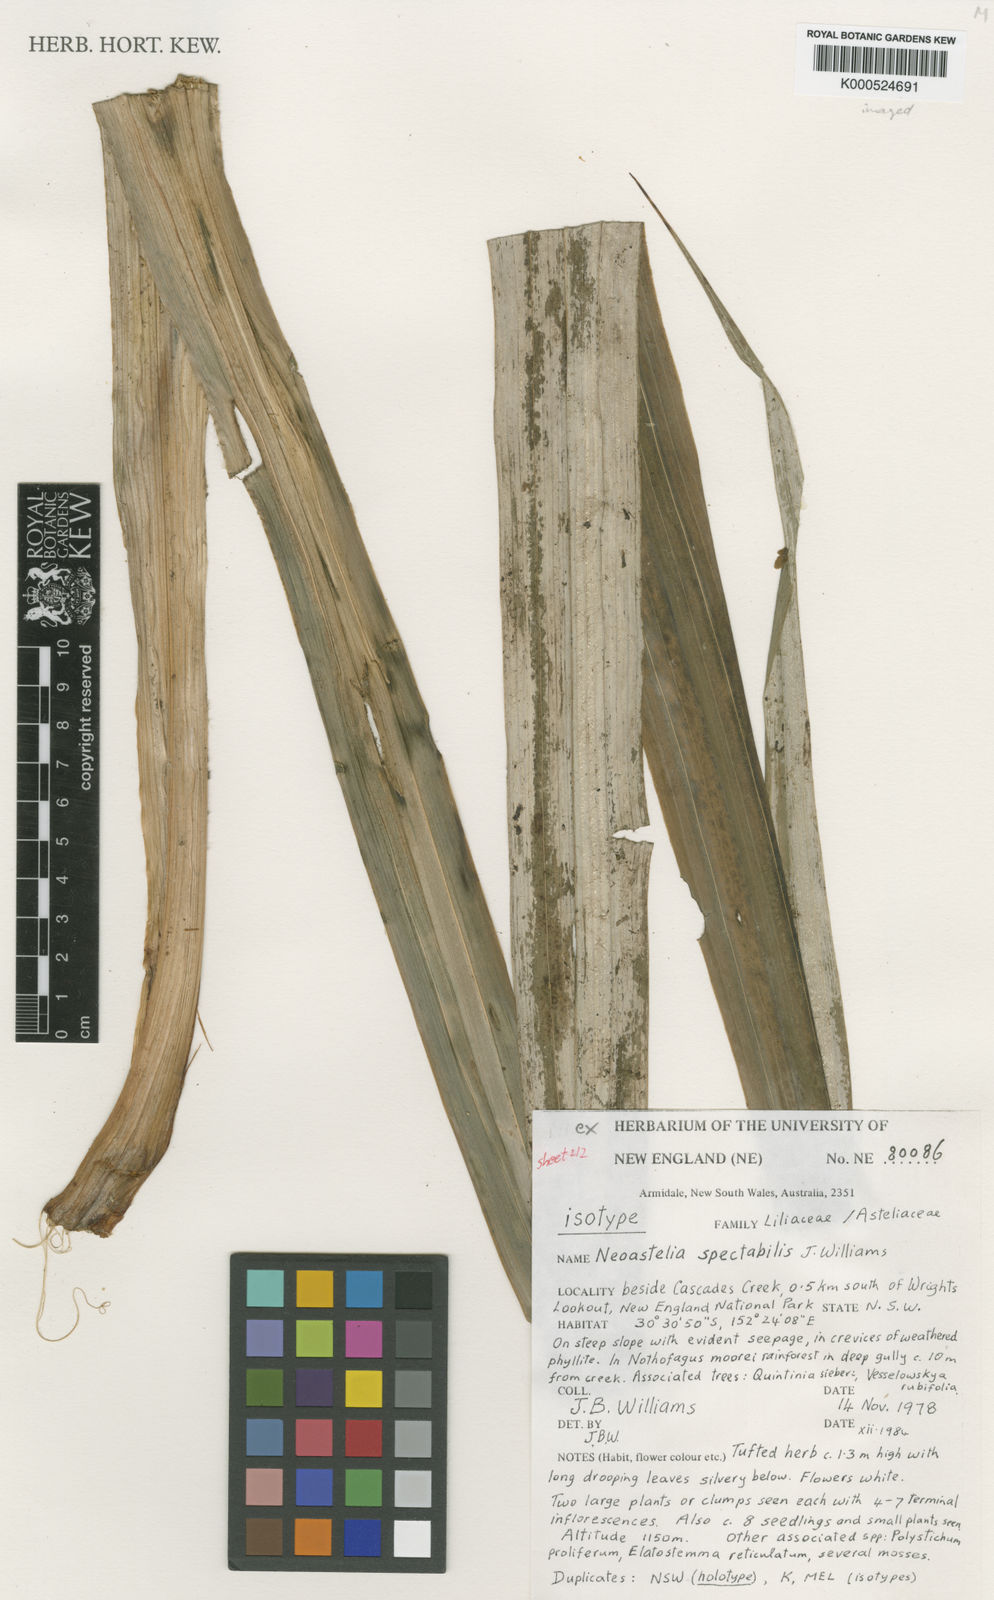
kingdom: Plantae
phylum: Tracheophyta
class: Liliopsida
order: Asparagales
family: Asteliaceae
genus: Neoastelia
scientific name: Neoastelia spectabilis
